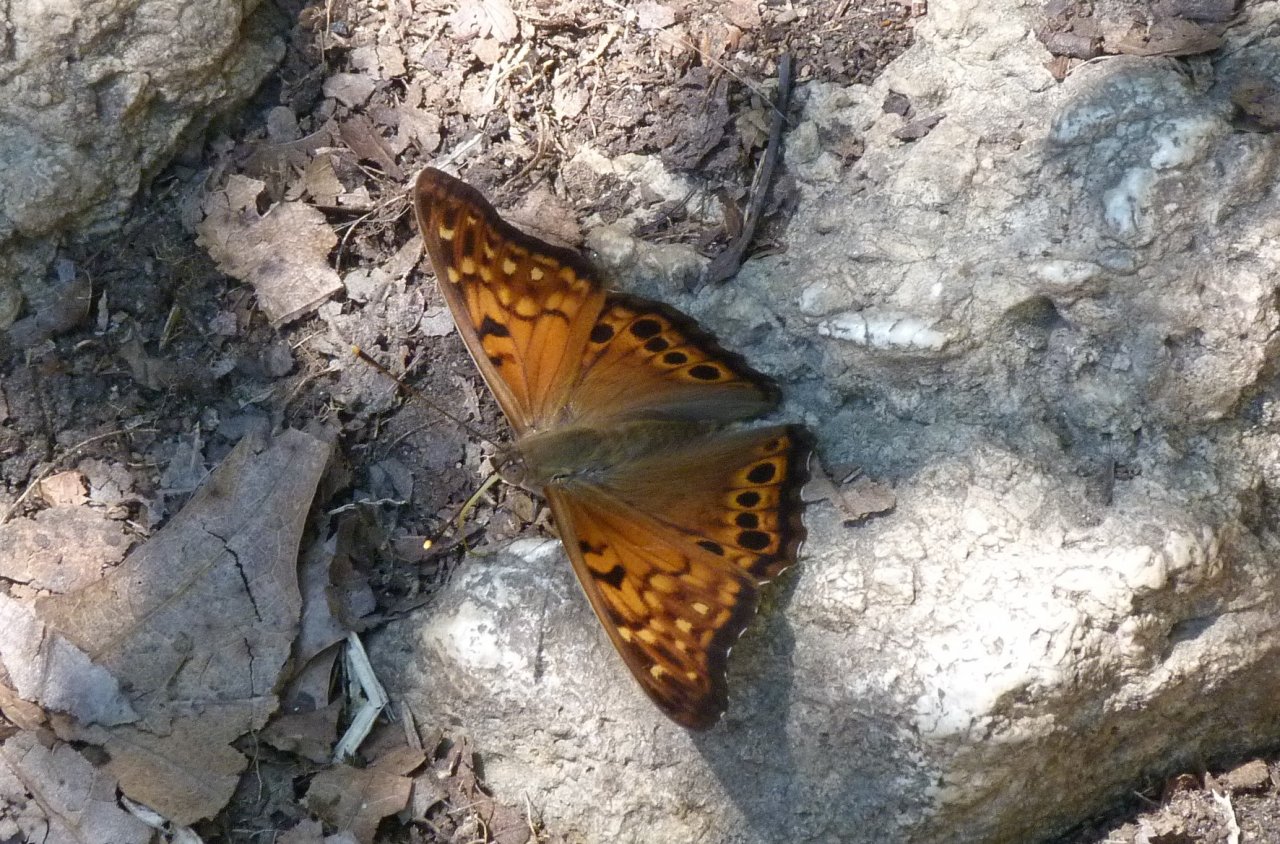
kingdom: Animalia
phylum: Arthropoda
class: Insecta
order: Lepidoptera
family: Nymphalidae
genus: Asterocampa
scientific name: Asterocampa clyton
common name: Tawny Emperor
